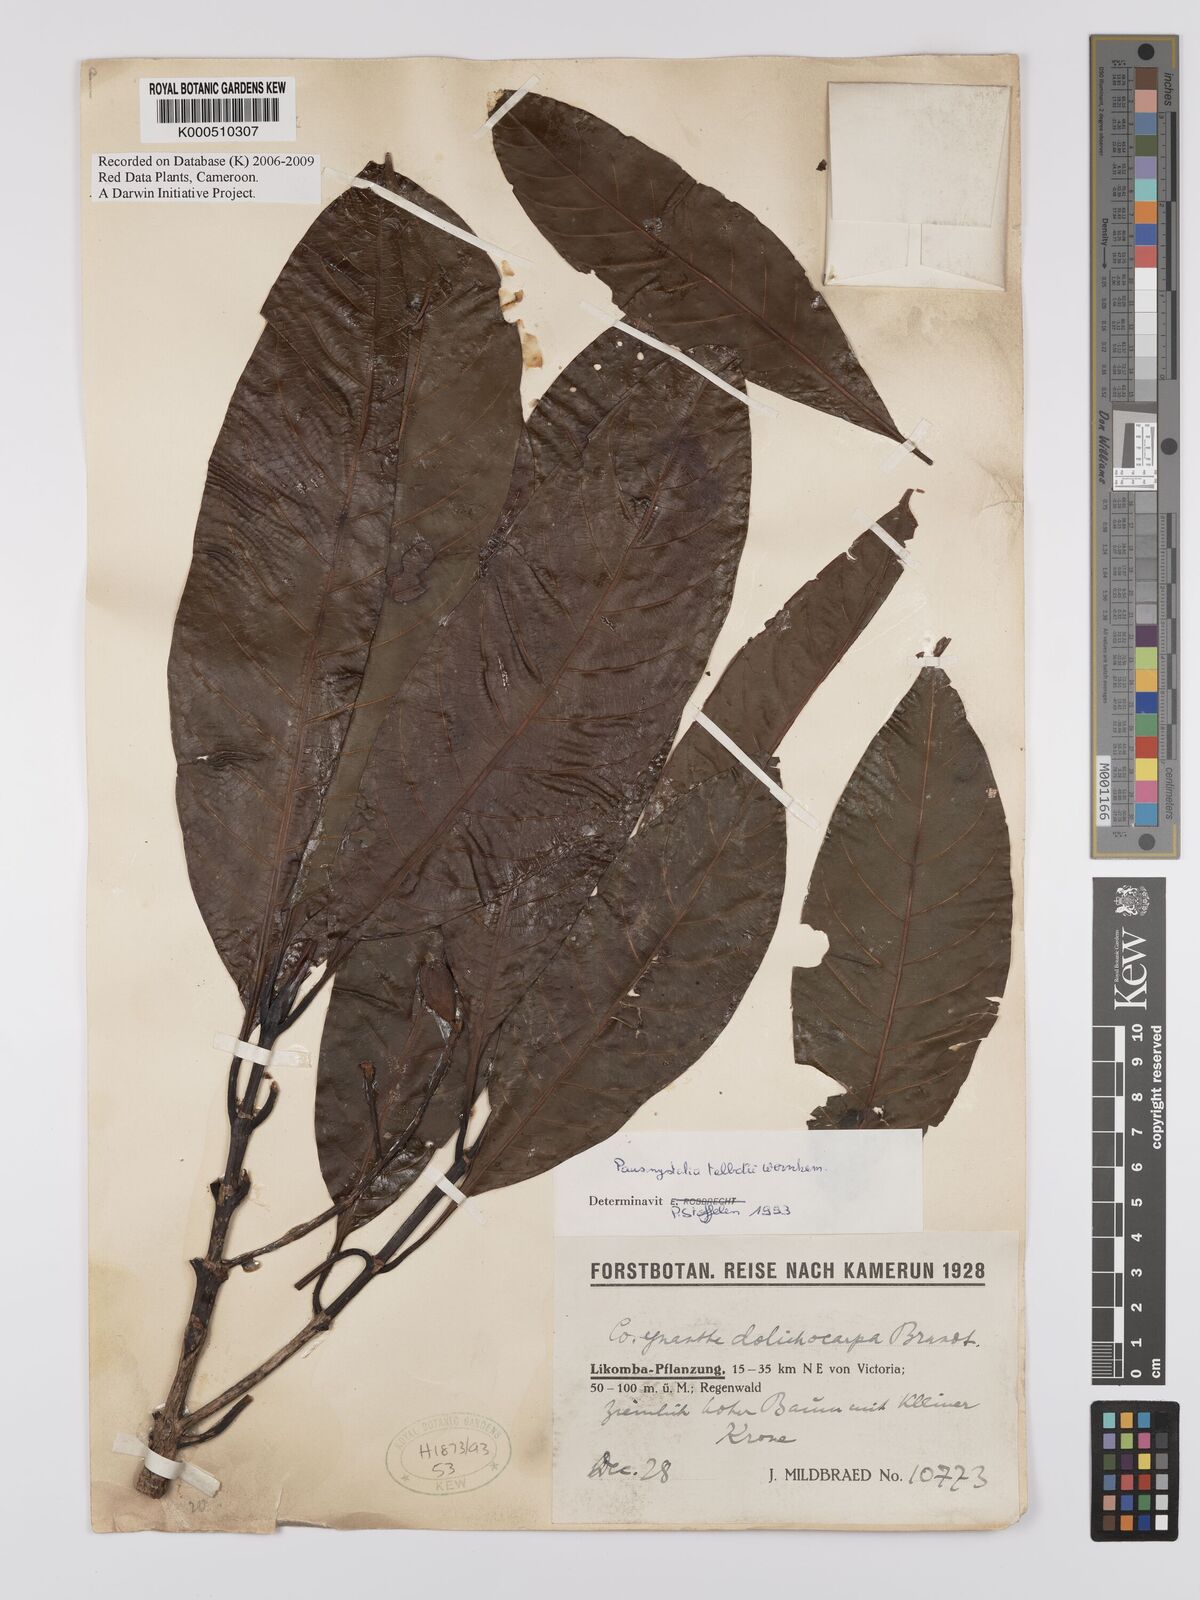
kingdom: Plantae
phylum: Tracheophyta
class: Magnoliopsida
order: Gentianales
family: Rubiaceae
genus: Corynanthe
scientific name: Corynanthe talbotii
